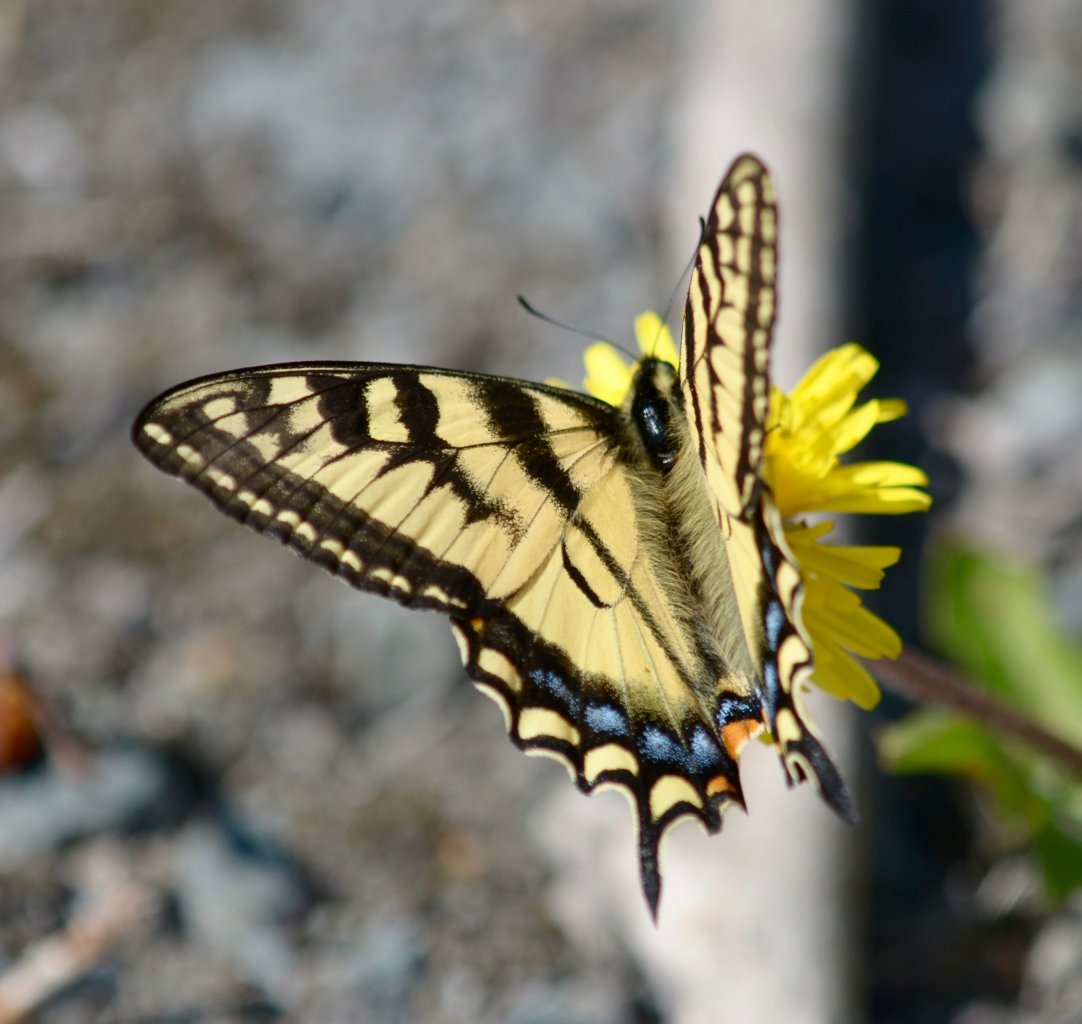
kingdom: Animalia
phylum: Arthropoda
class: Insecta
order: Lepidoptera
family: Papilionidae
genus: Pterourus
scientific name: Pterourus canadensis
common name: Canadian Tiger Swallowtail
